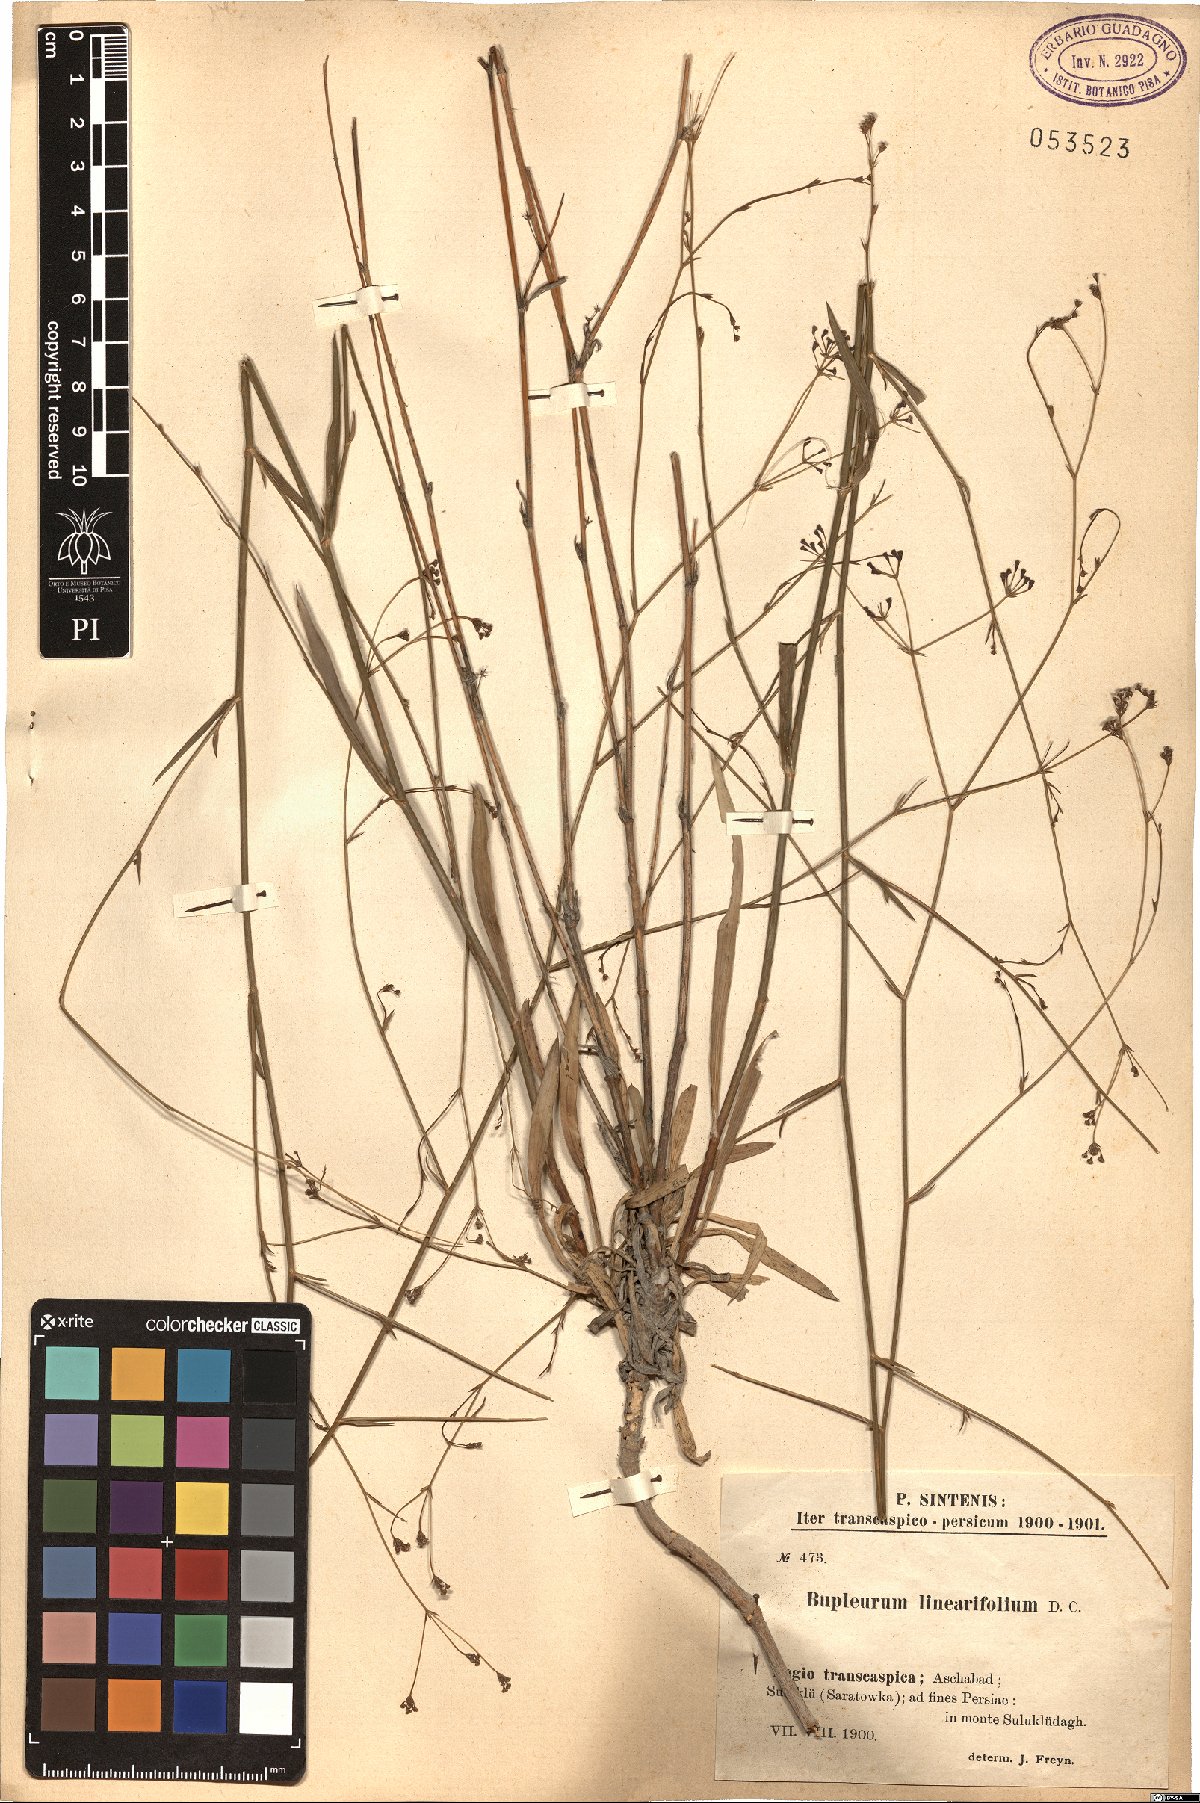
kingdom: Plantae
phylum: Tracheophyta
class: Magnoliopsida
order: Apiales
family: Apiaceae
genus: Bupleurum
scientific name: Bupleurum exaltatum
